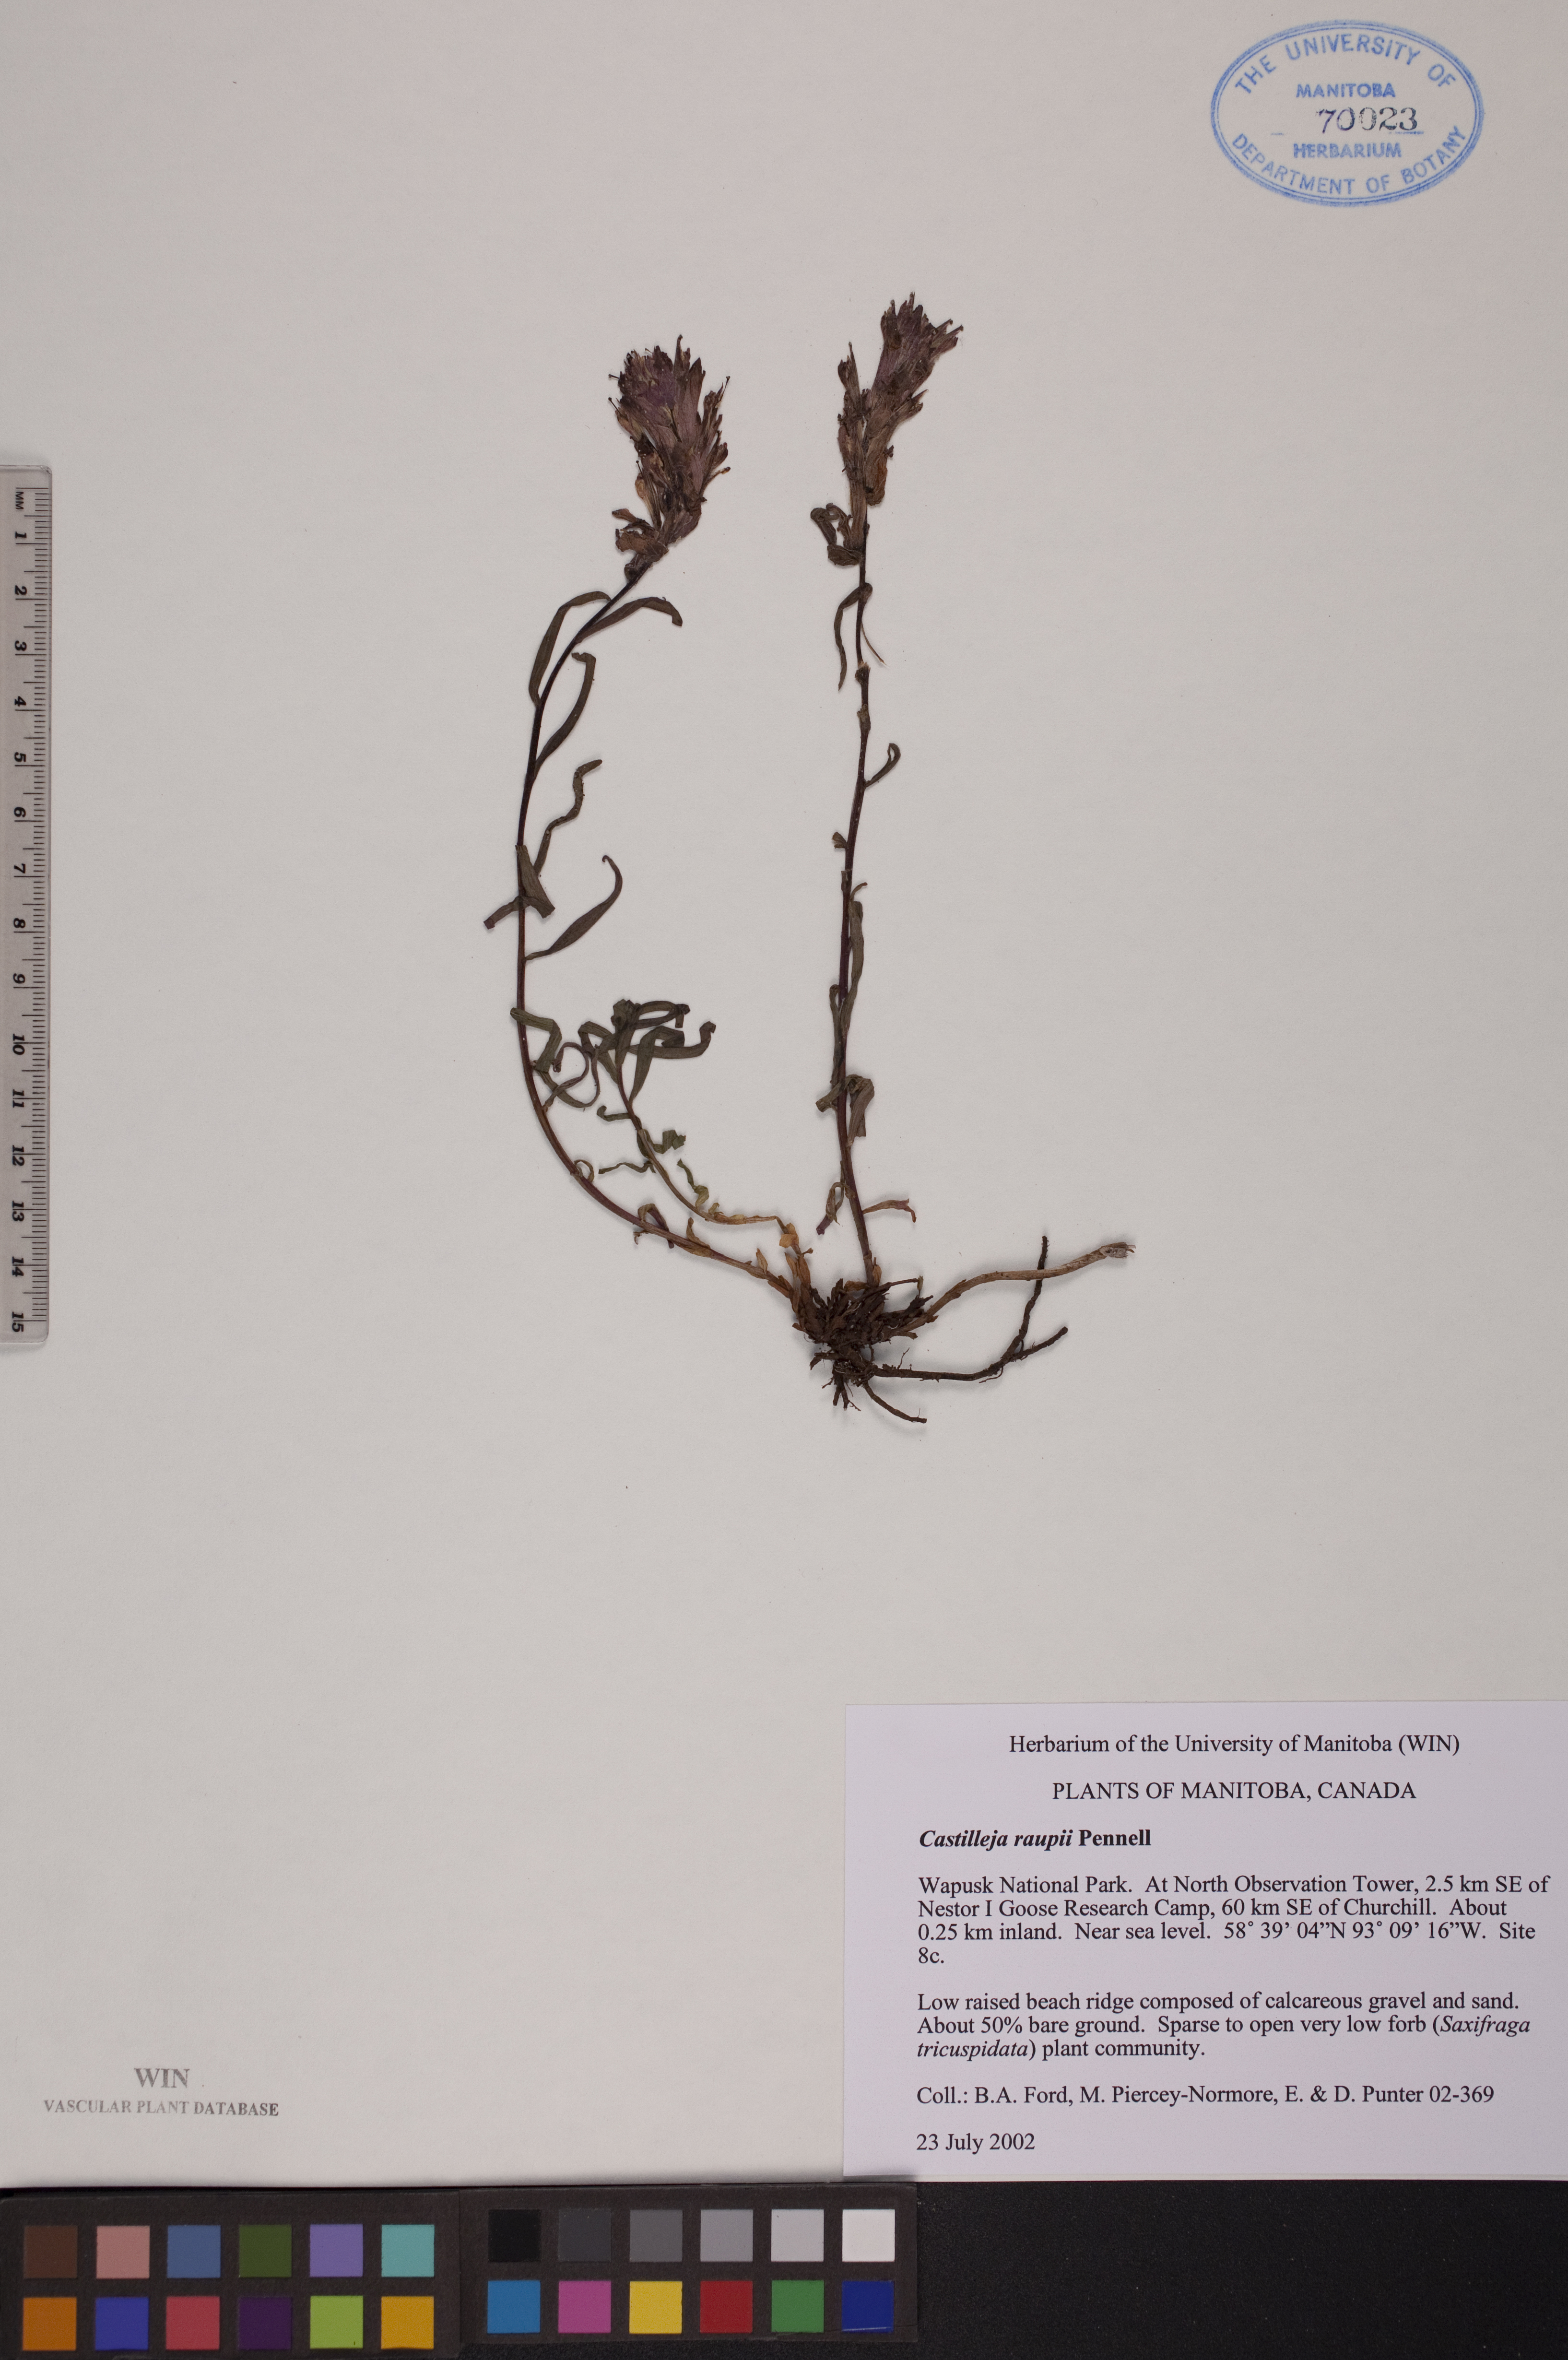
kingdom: Plantae
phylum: Tracheophyta
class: Magnoliopsida
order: Lamiales
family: Orobanchaceae
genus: Castilleja
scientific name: Castilleja raupii
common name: Raup's paintbrush
